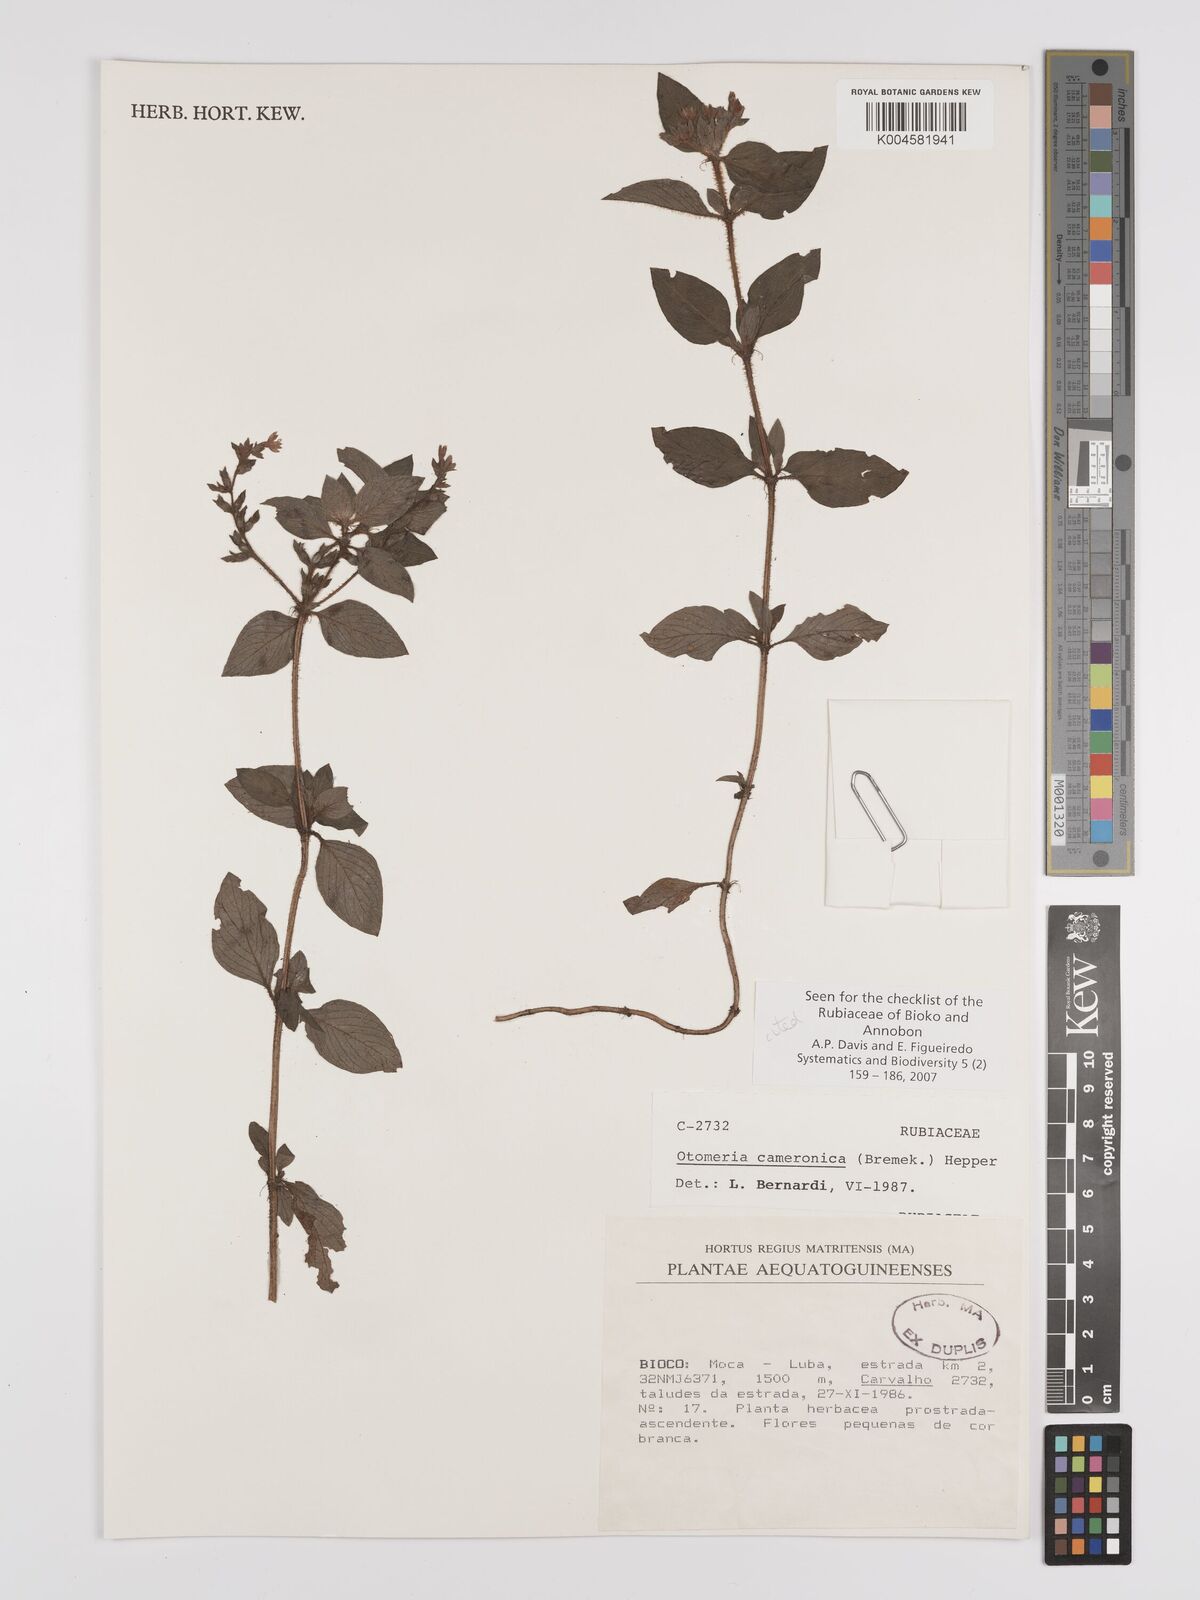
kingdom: Plantae
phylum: Tracheophyta
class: Magnoliopsida
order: Gentianales
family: Rubiaceae
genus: Otomeria
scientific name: Otomeria cameronica
